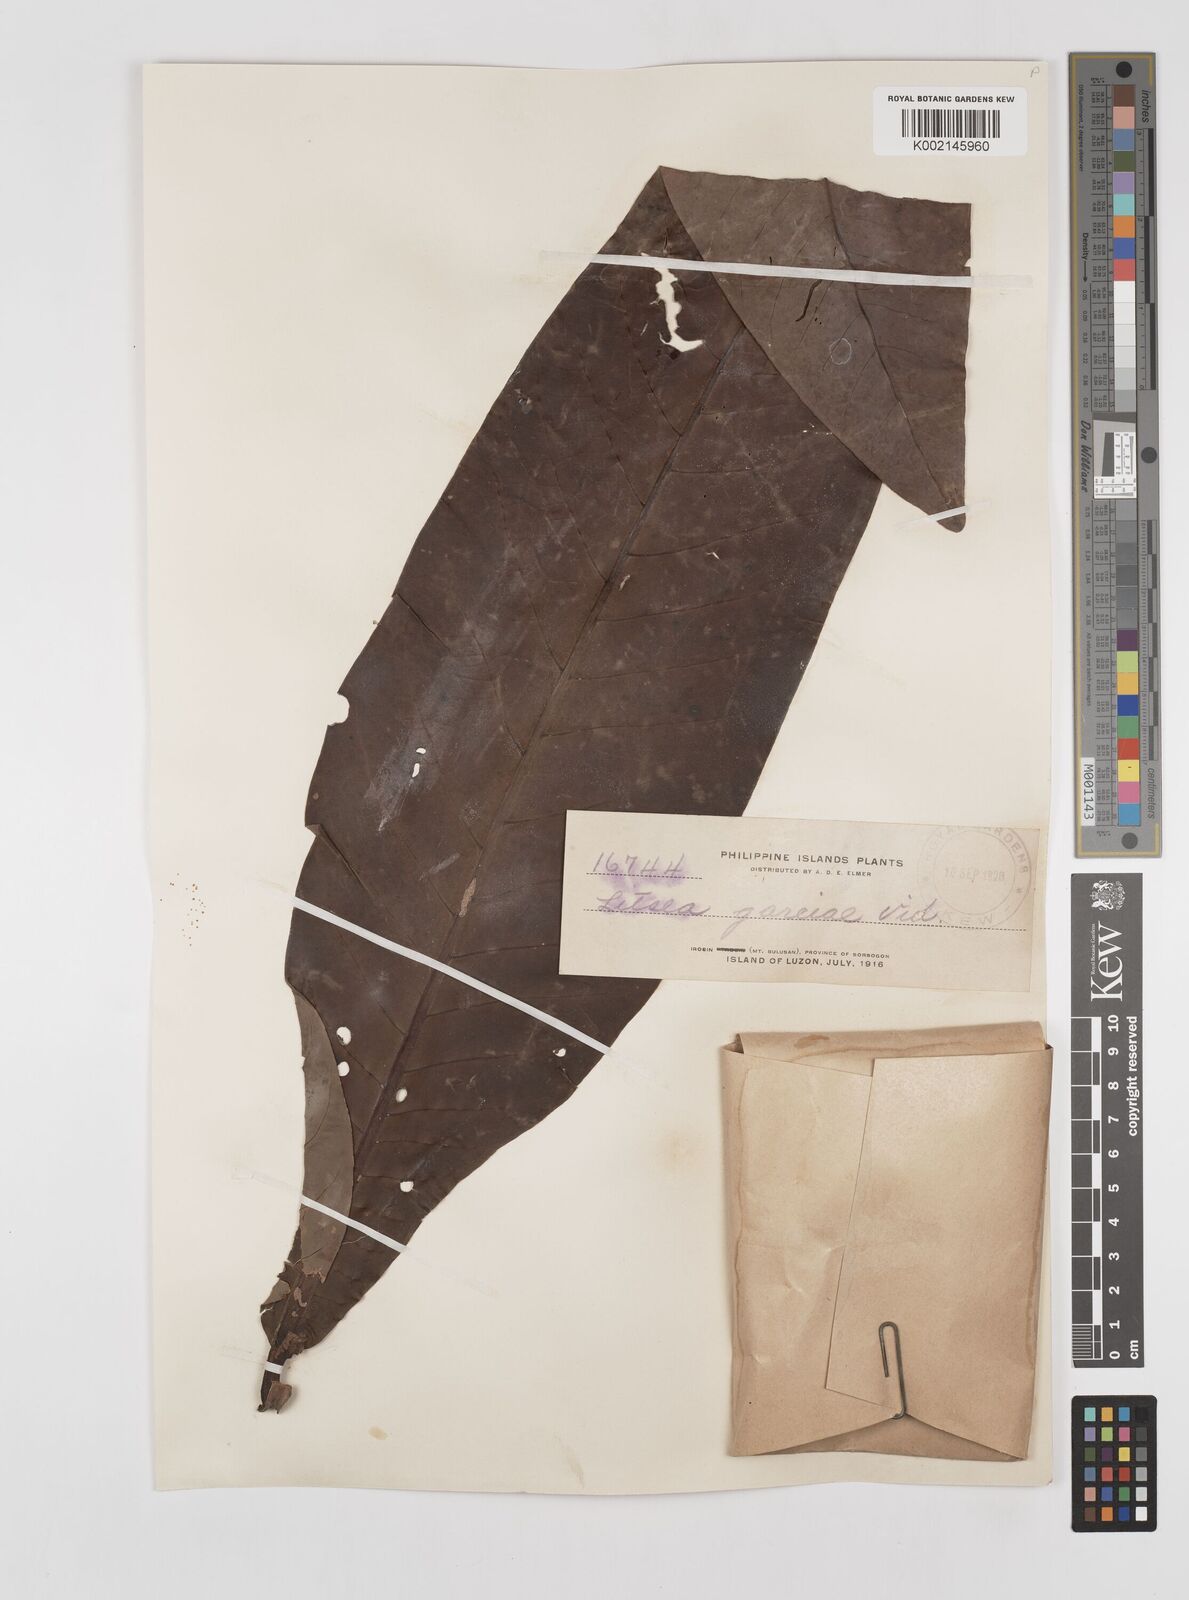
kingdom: Plantae
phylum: Tracheophyta
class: Magnoliopsida
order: Laurales
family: Lauraceae
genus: Litsea
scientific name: Litsea garciae
